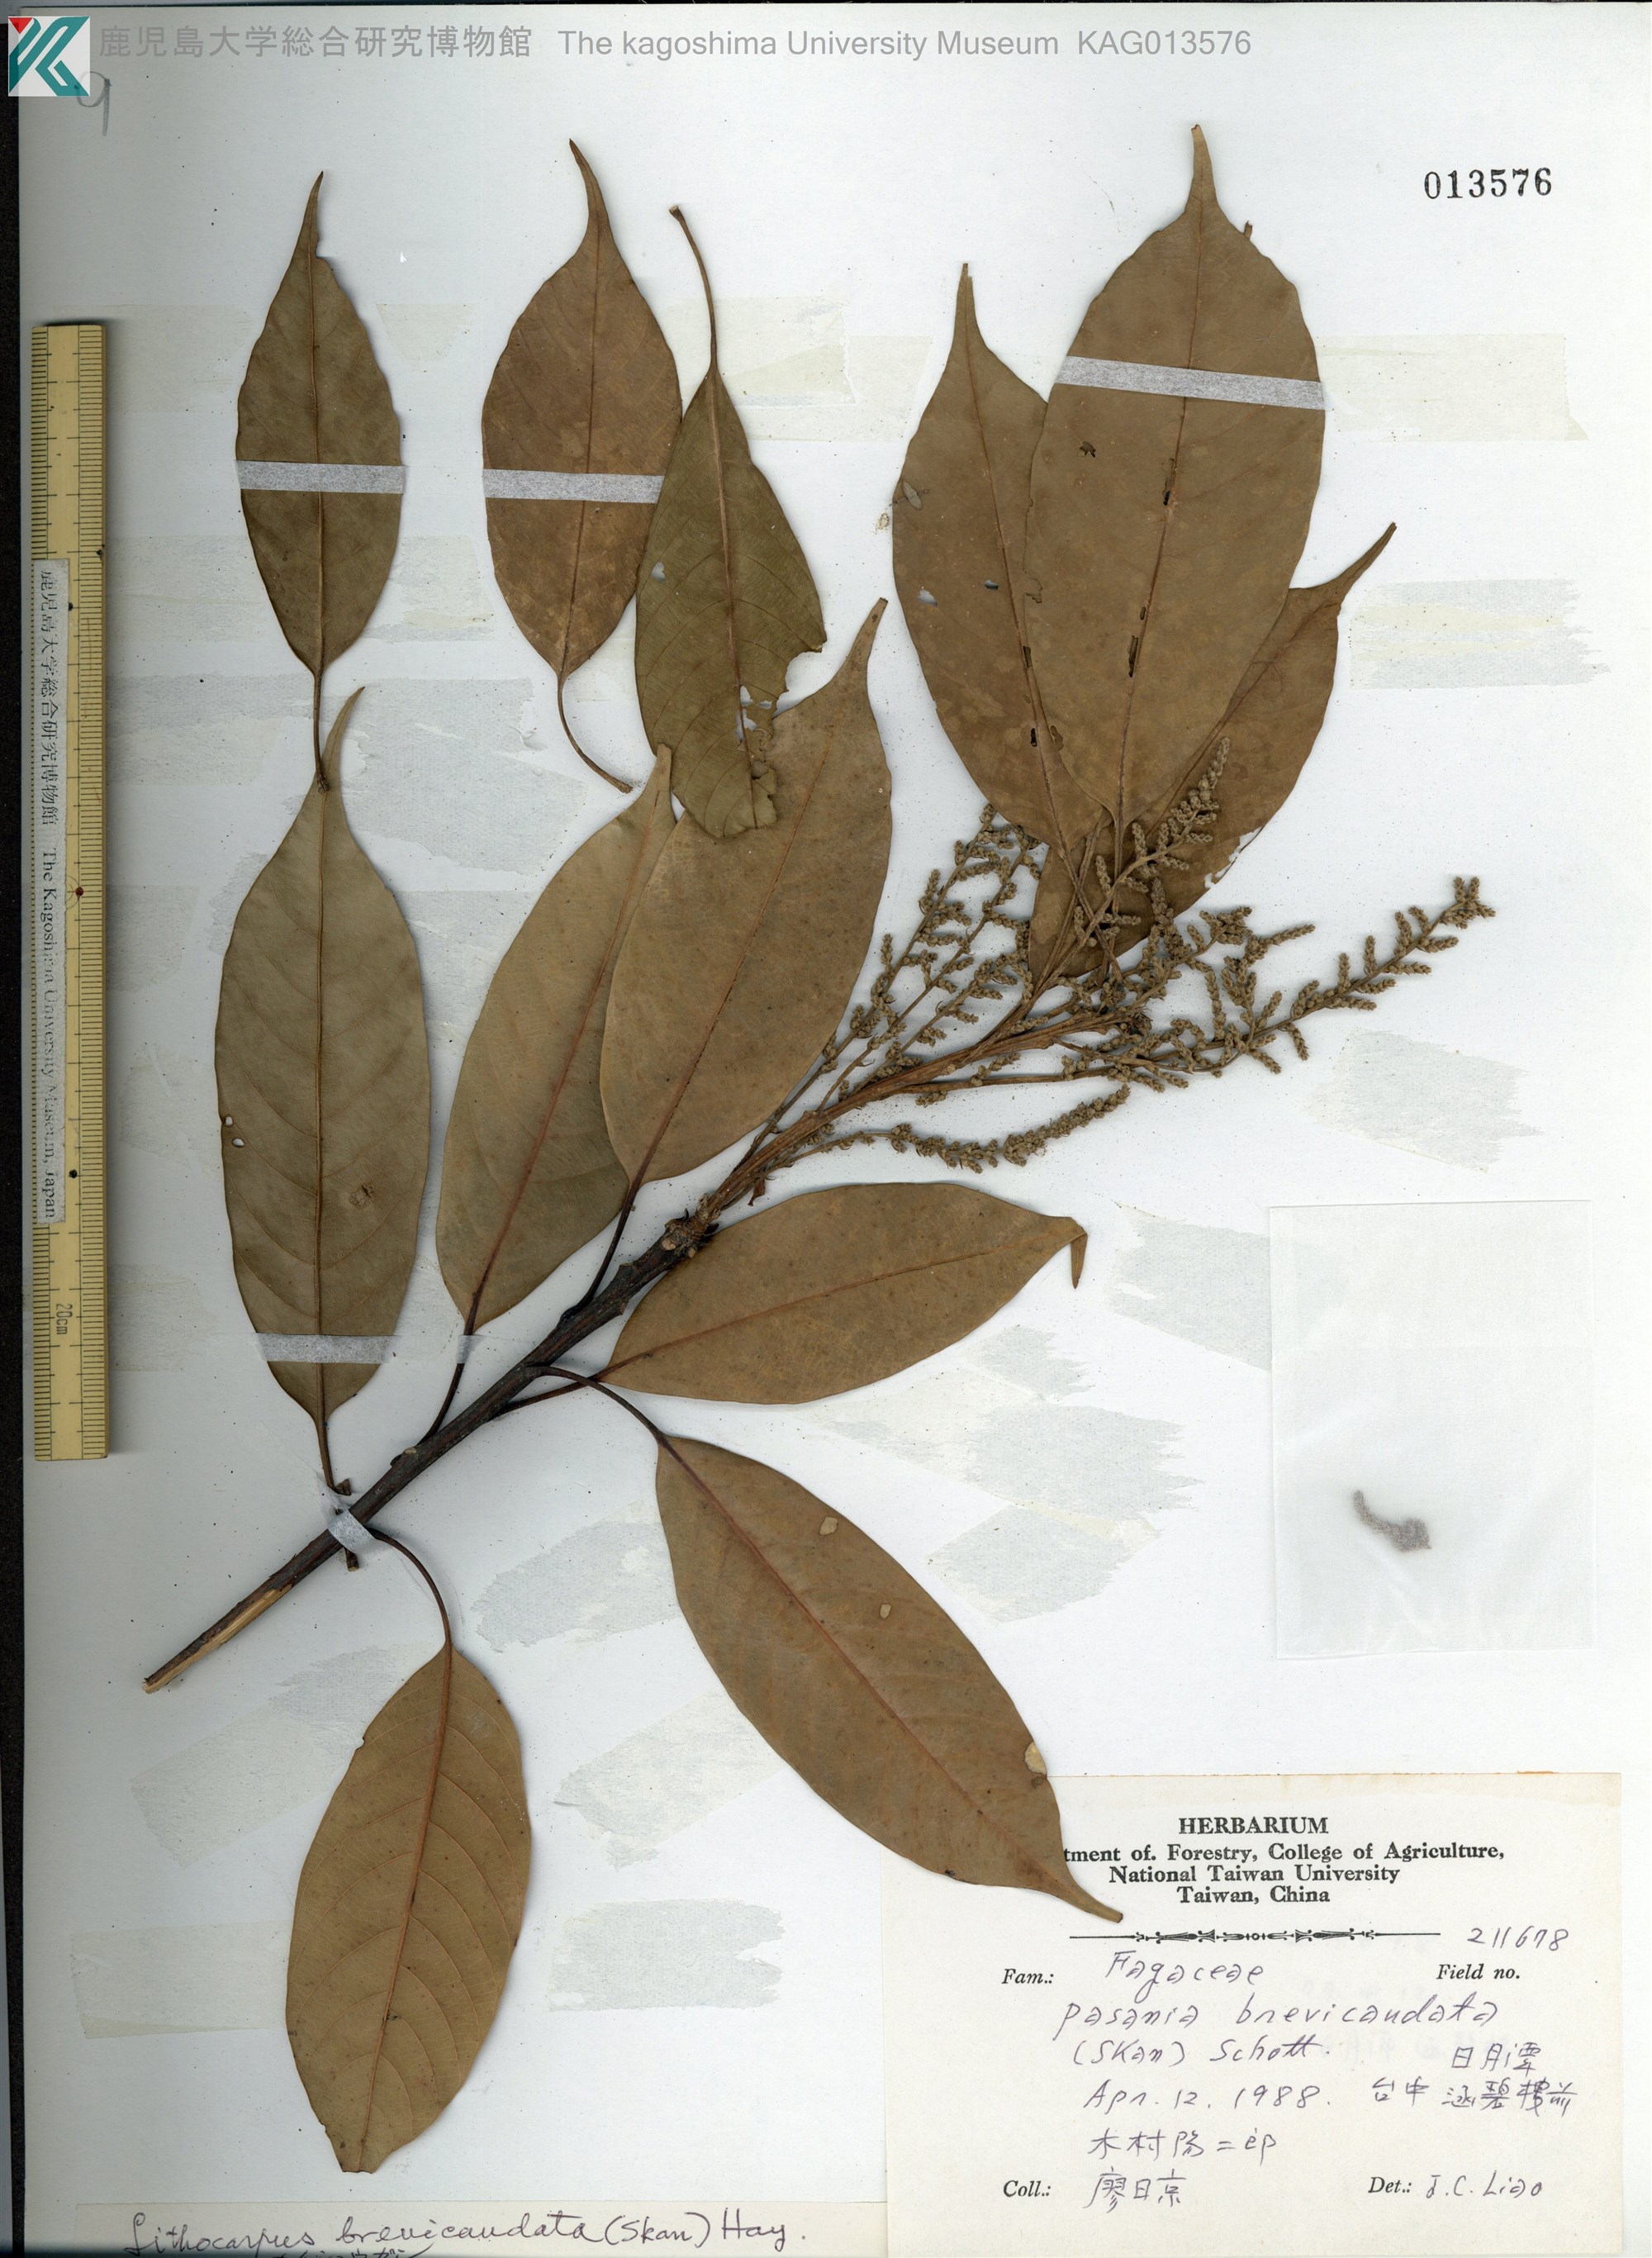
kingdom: Plantae
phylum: Tracheophyta
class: Magnoliopsida
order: Fagales
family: Fagaceae
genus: Lithocarpus
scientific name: Lithocarpus brevicaudatus
